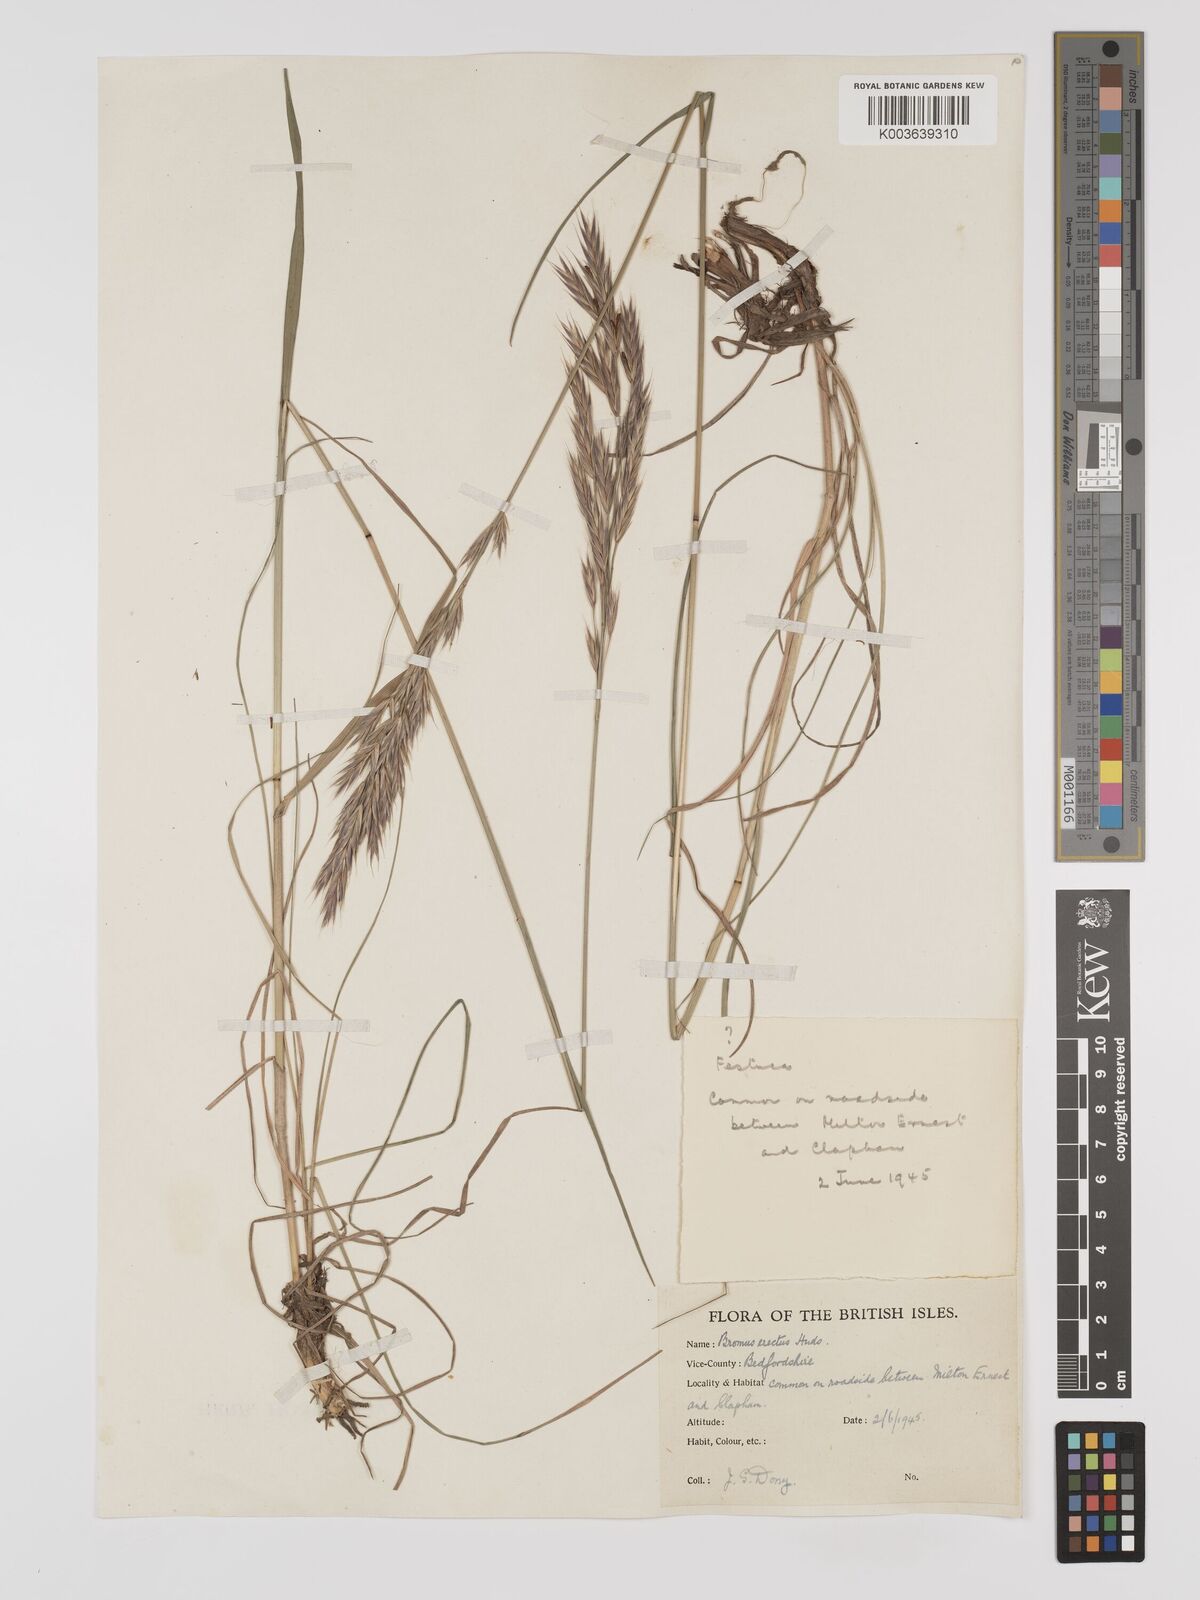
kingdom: Plantae
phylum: Tracheophyta
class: Liliopsida
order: Poales
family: Poaceae
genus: Bromus
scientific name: Bromus erectus
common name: Erect brome
